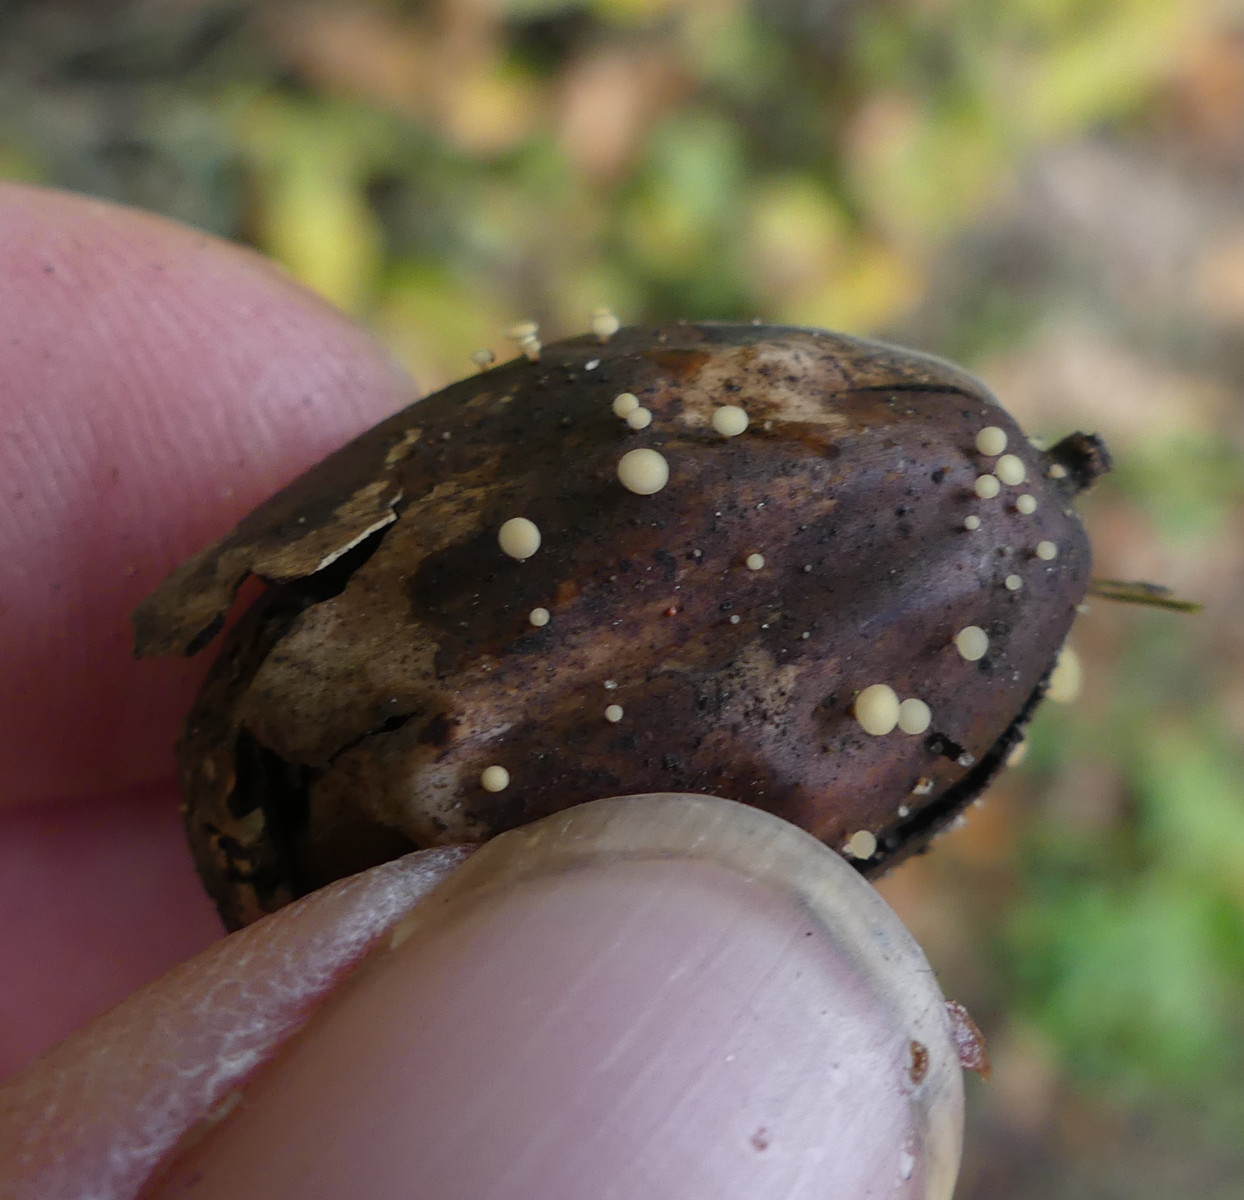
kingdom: Fungi
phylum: Ascomycota
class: Leotiomycetes
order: Helotiales
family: Helotiaceae
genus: Hymenoscyphus
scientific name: Hymenoscyphus fructigenus
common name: frugt-stilkskive
